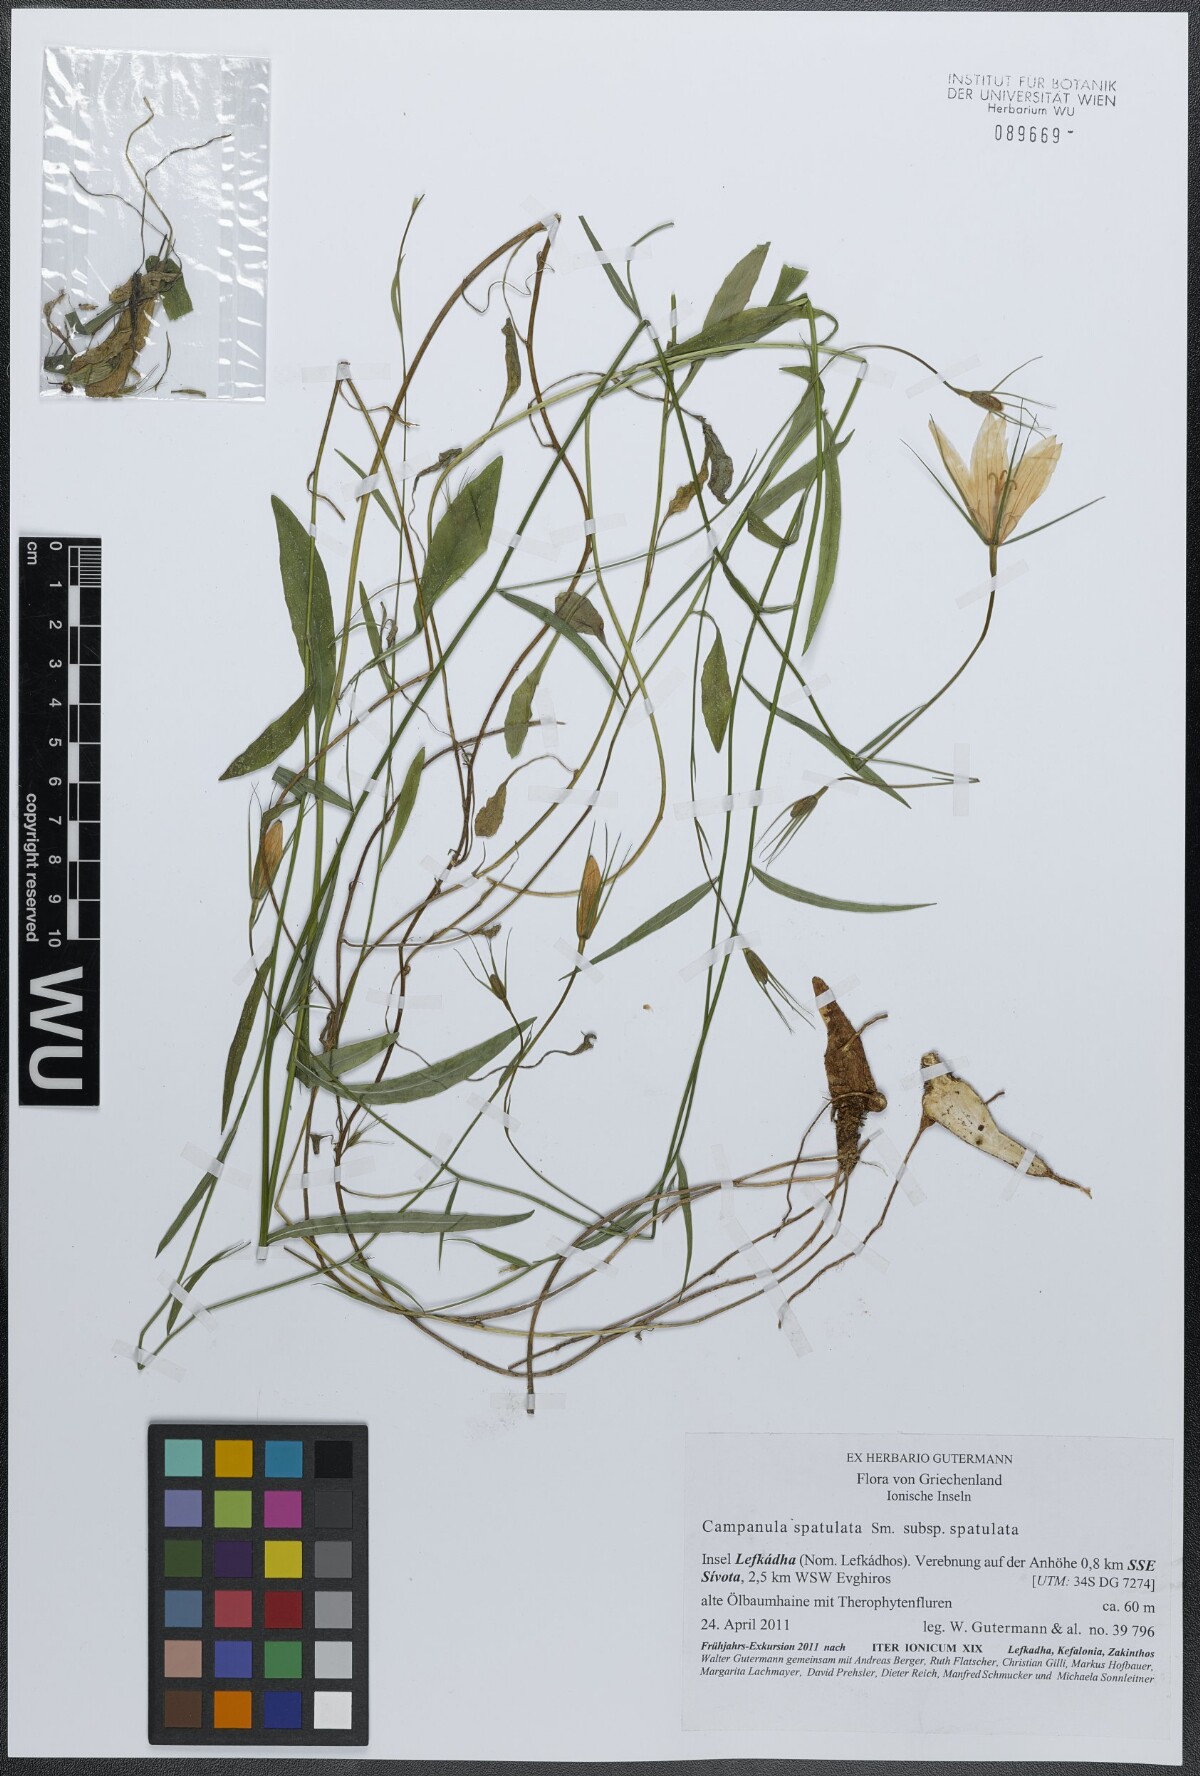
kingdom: Plantae
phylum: Tracheophyta
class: Magnoliopsida
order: Asterales
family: Campanulaceae
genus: Campanula
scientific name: Campanula spatulata
